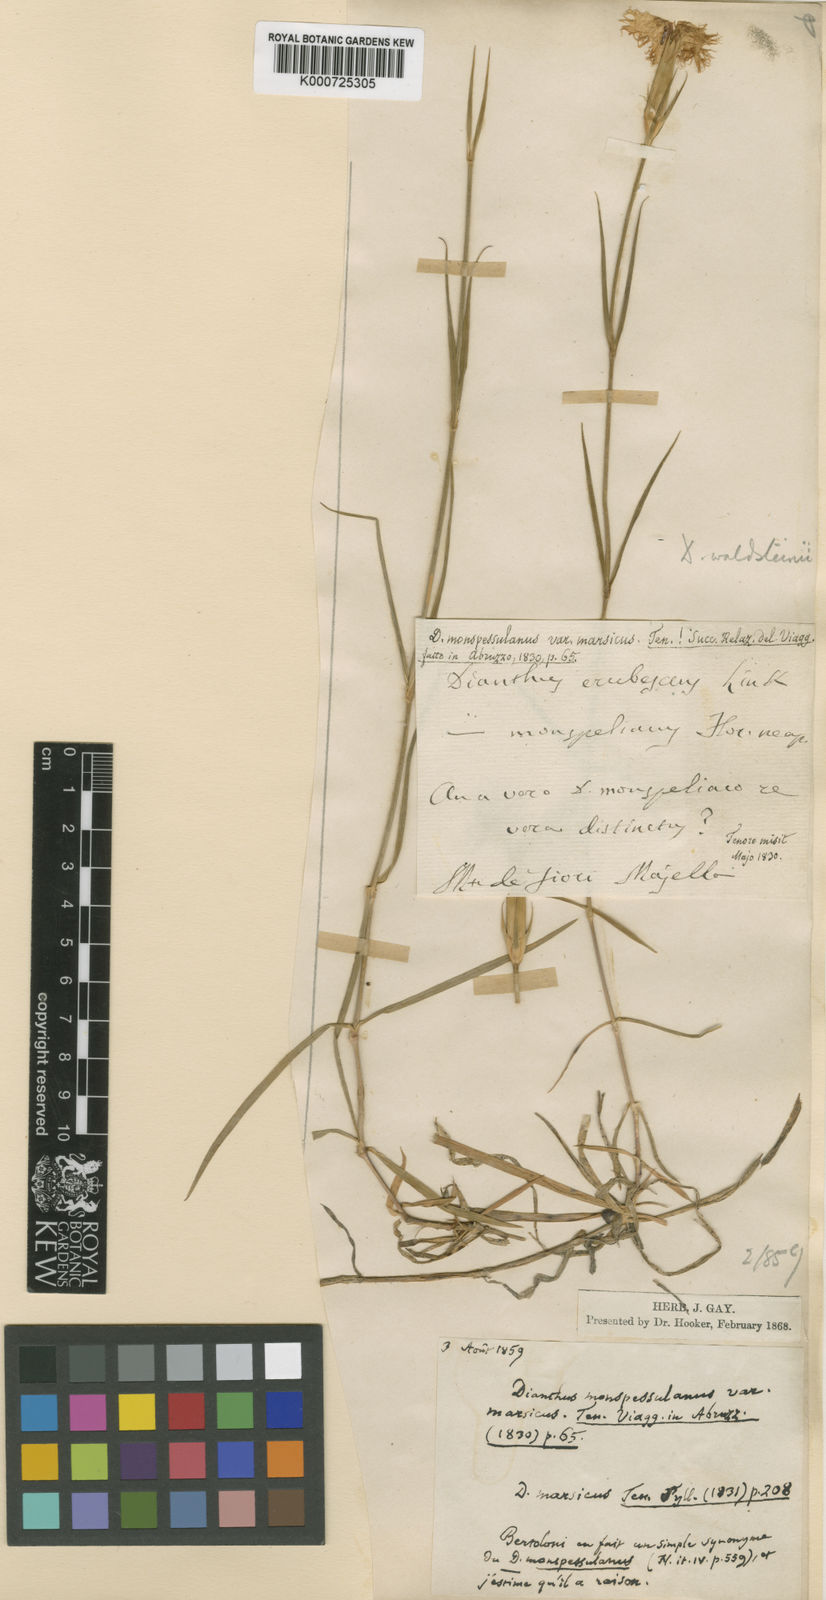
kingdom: Plantae
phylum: Tracheophyta
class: Magnoliopsida
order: Caryophyllales
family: Caryophyllaceae
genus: Dianthus
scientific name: Dianthus sternbergii
